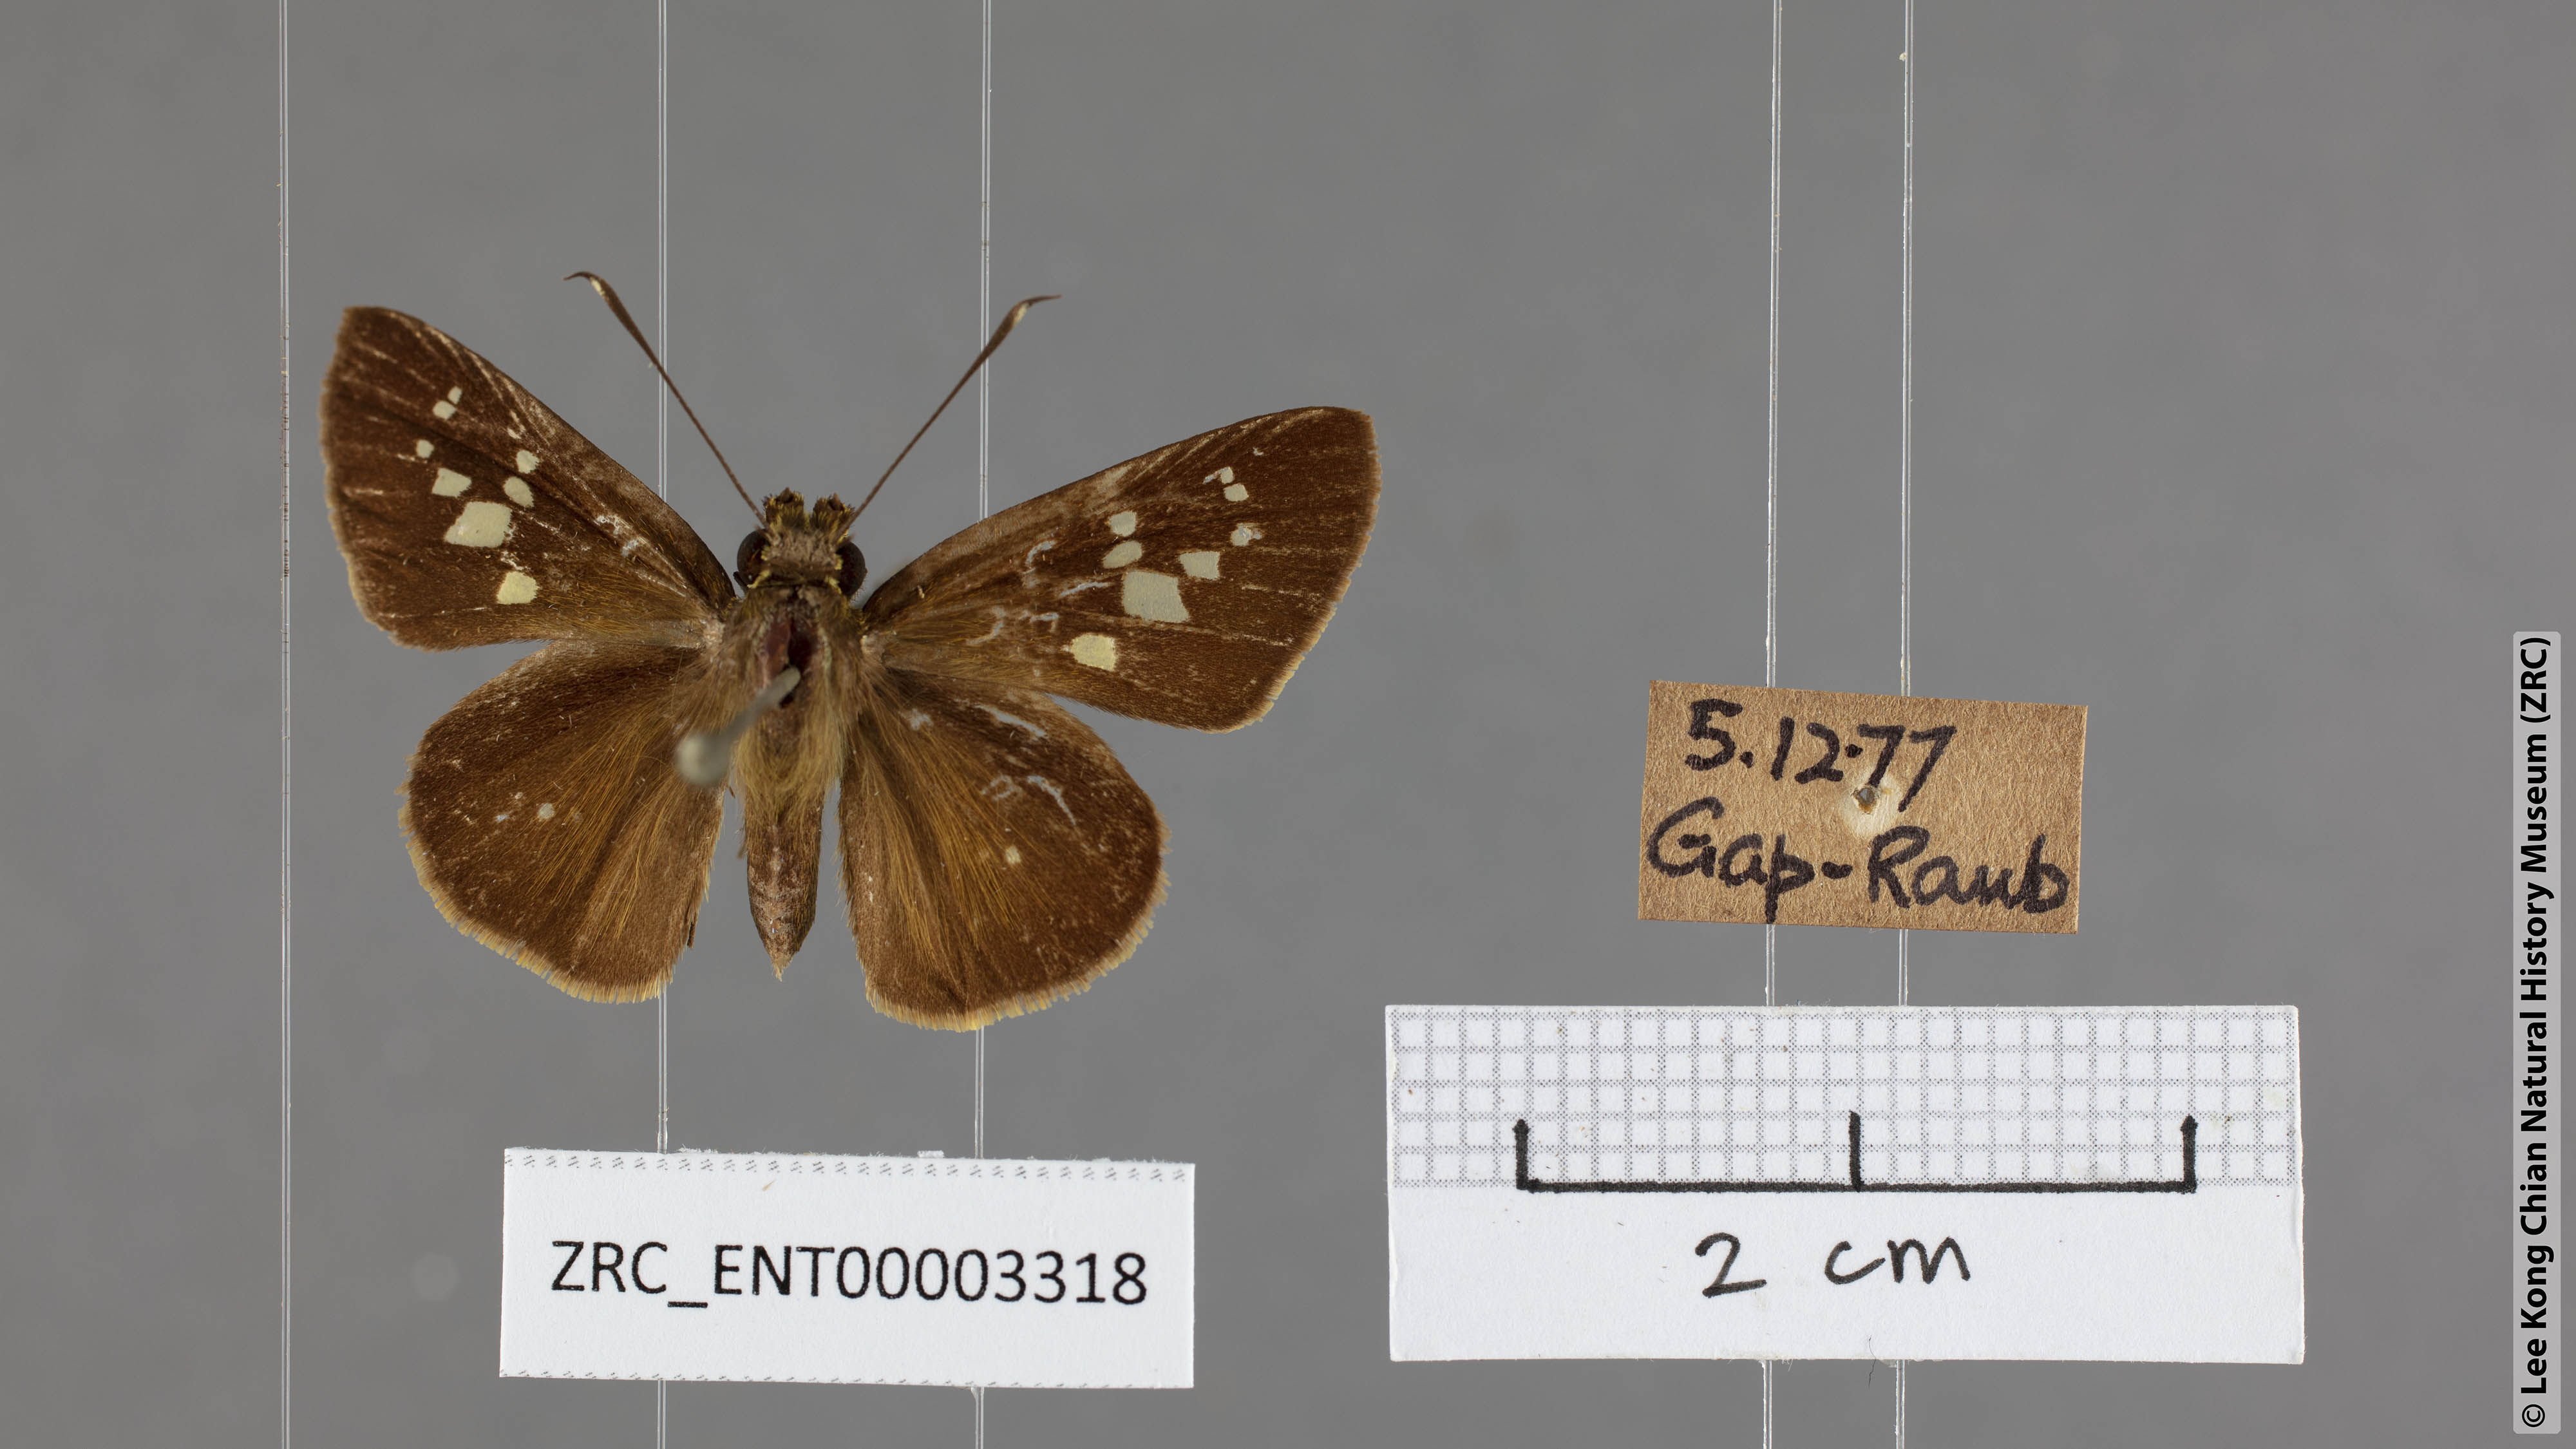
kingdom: Animalia
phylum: Arthropoda
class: Insecta
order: Lepidoptera
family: Hesperiidae
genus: Isma
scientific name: Isma umbrosa
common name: Large long-banded flitter
